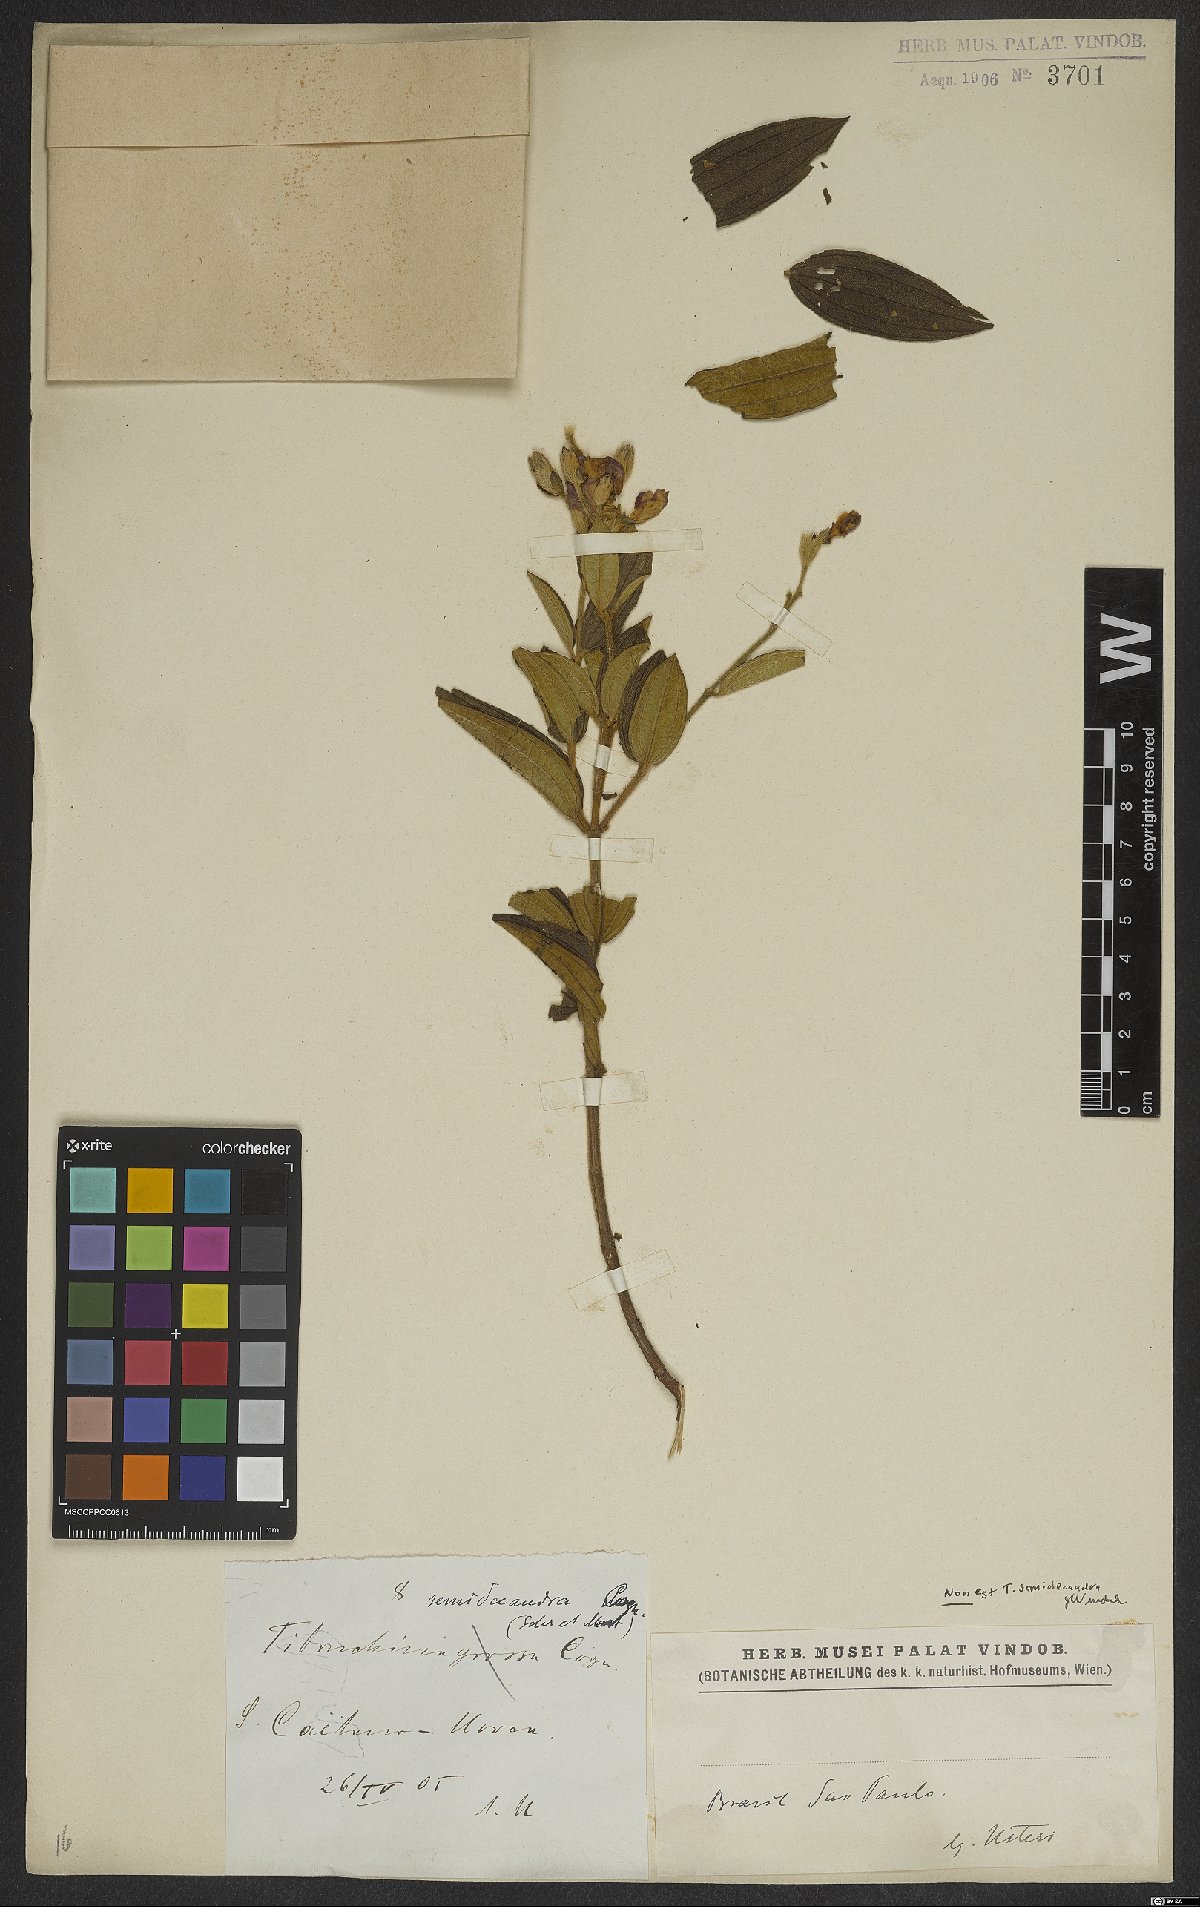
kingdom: Plantae
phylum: Tracheophyta
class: Magnoliopsida
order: Myrtales
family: Melastomataceae
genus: Pleroma
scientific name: Pleroma semidecandrum
